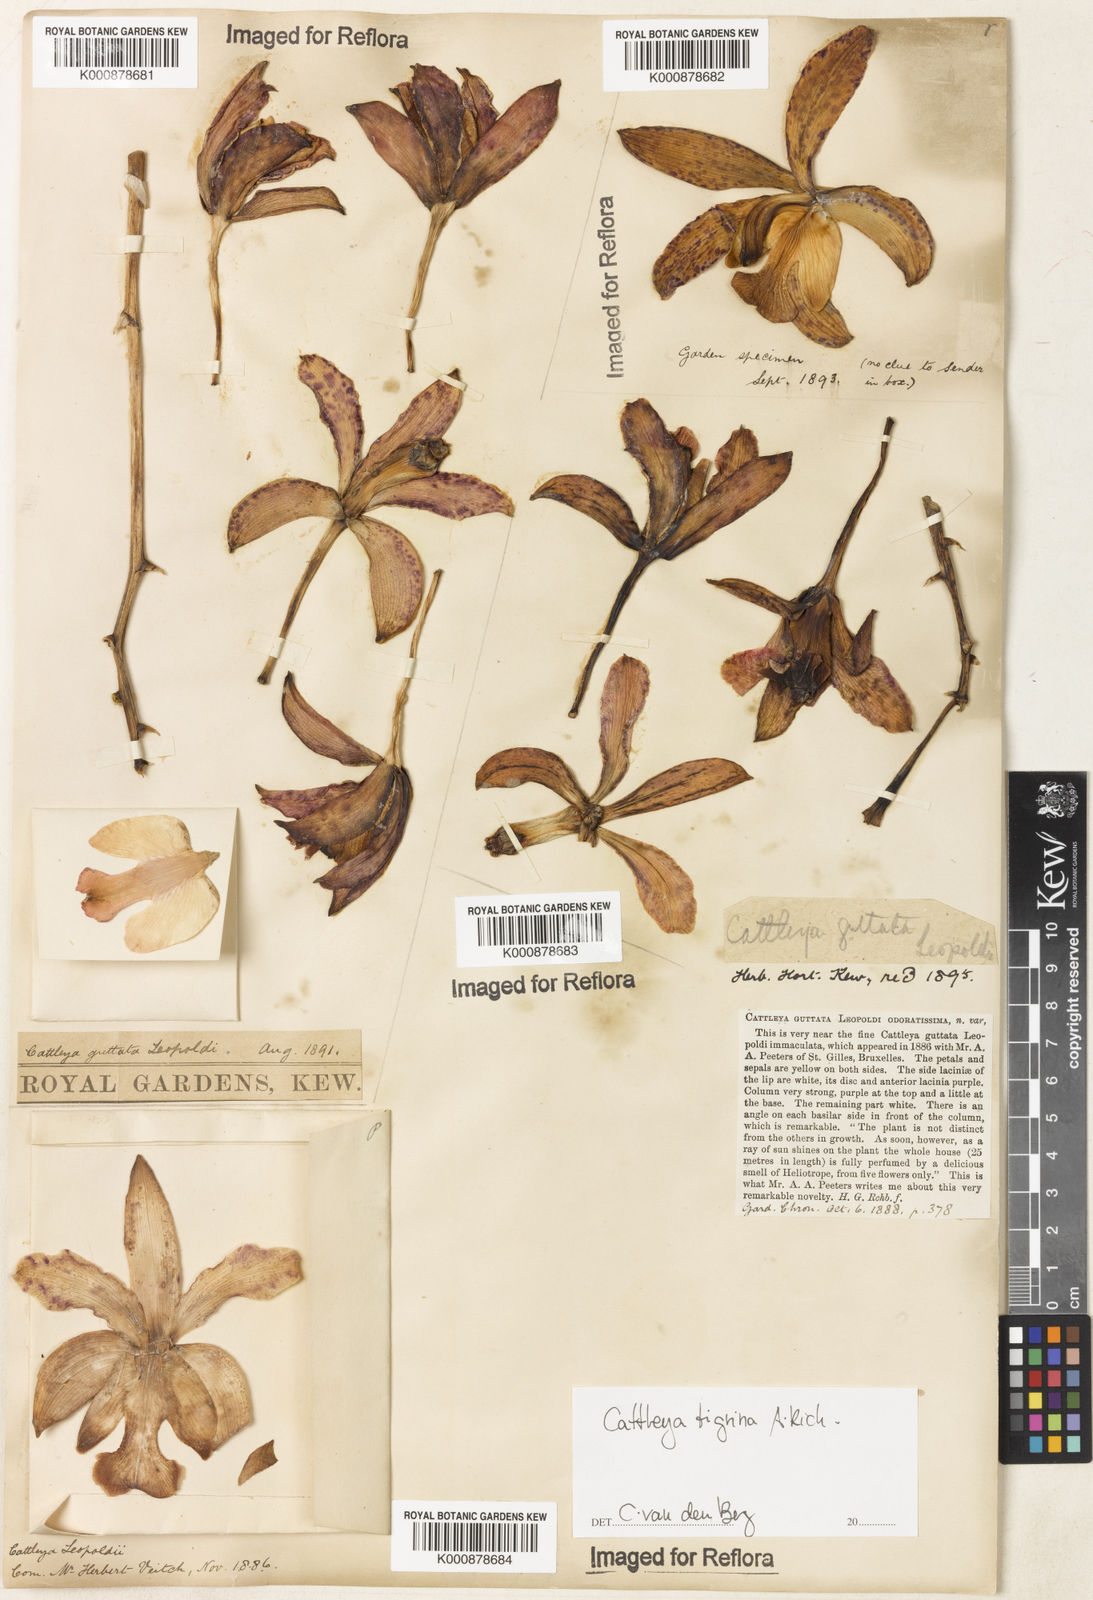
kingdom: Plantae
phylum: Tracheophyta
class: Liliopsida
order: Asparagales
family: Orchidaceae
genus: Cattleya
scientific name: Cattleya tigrina
